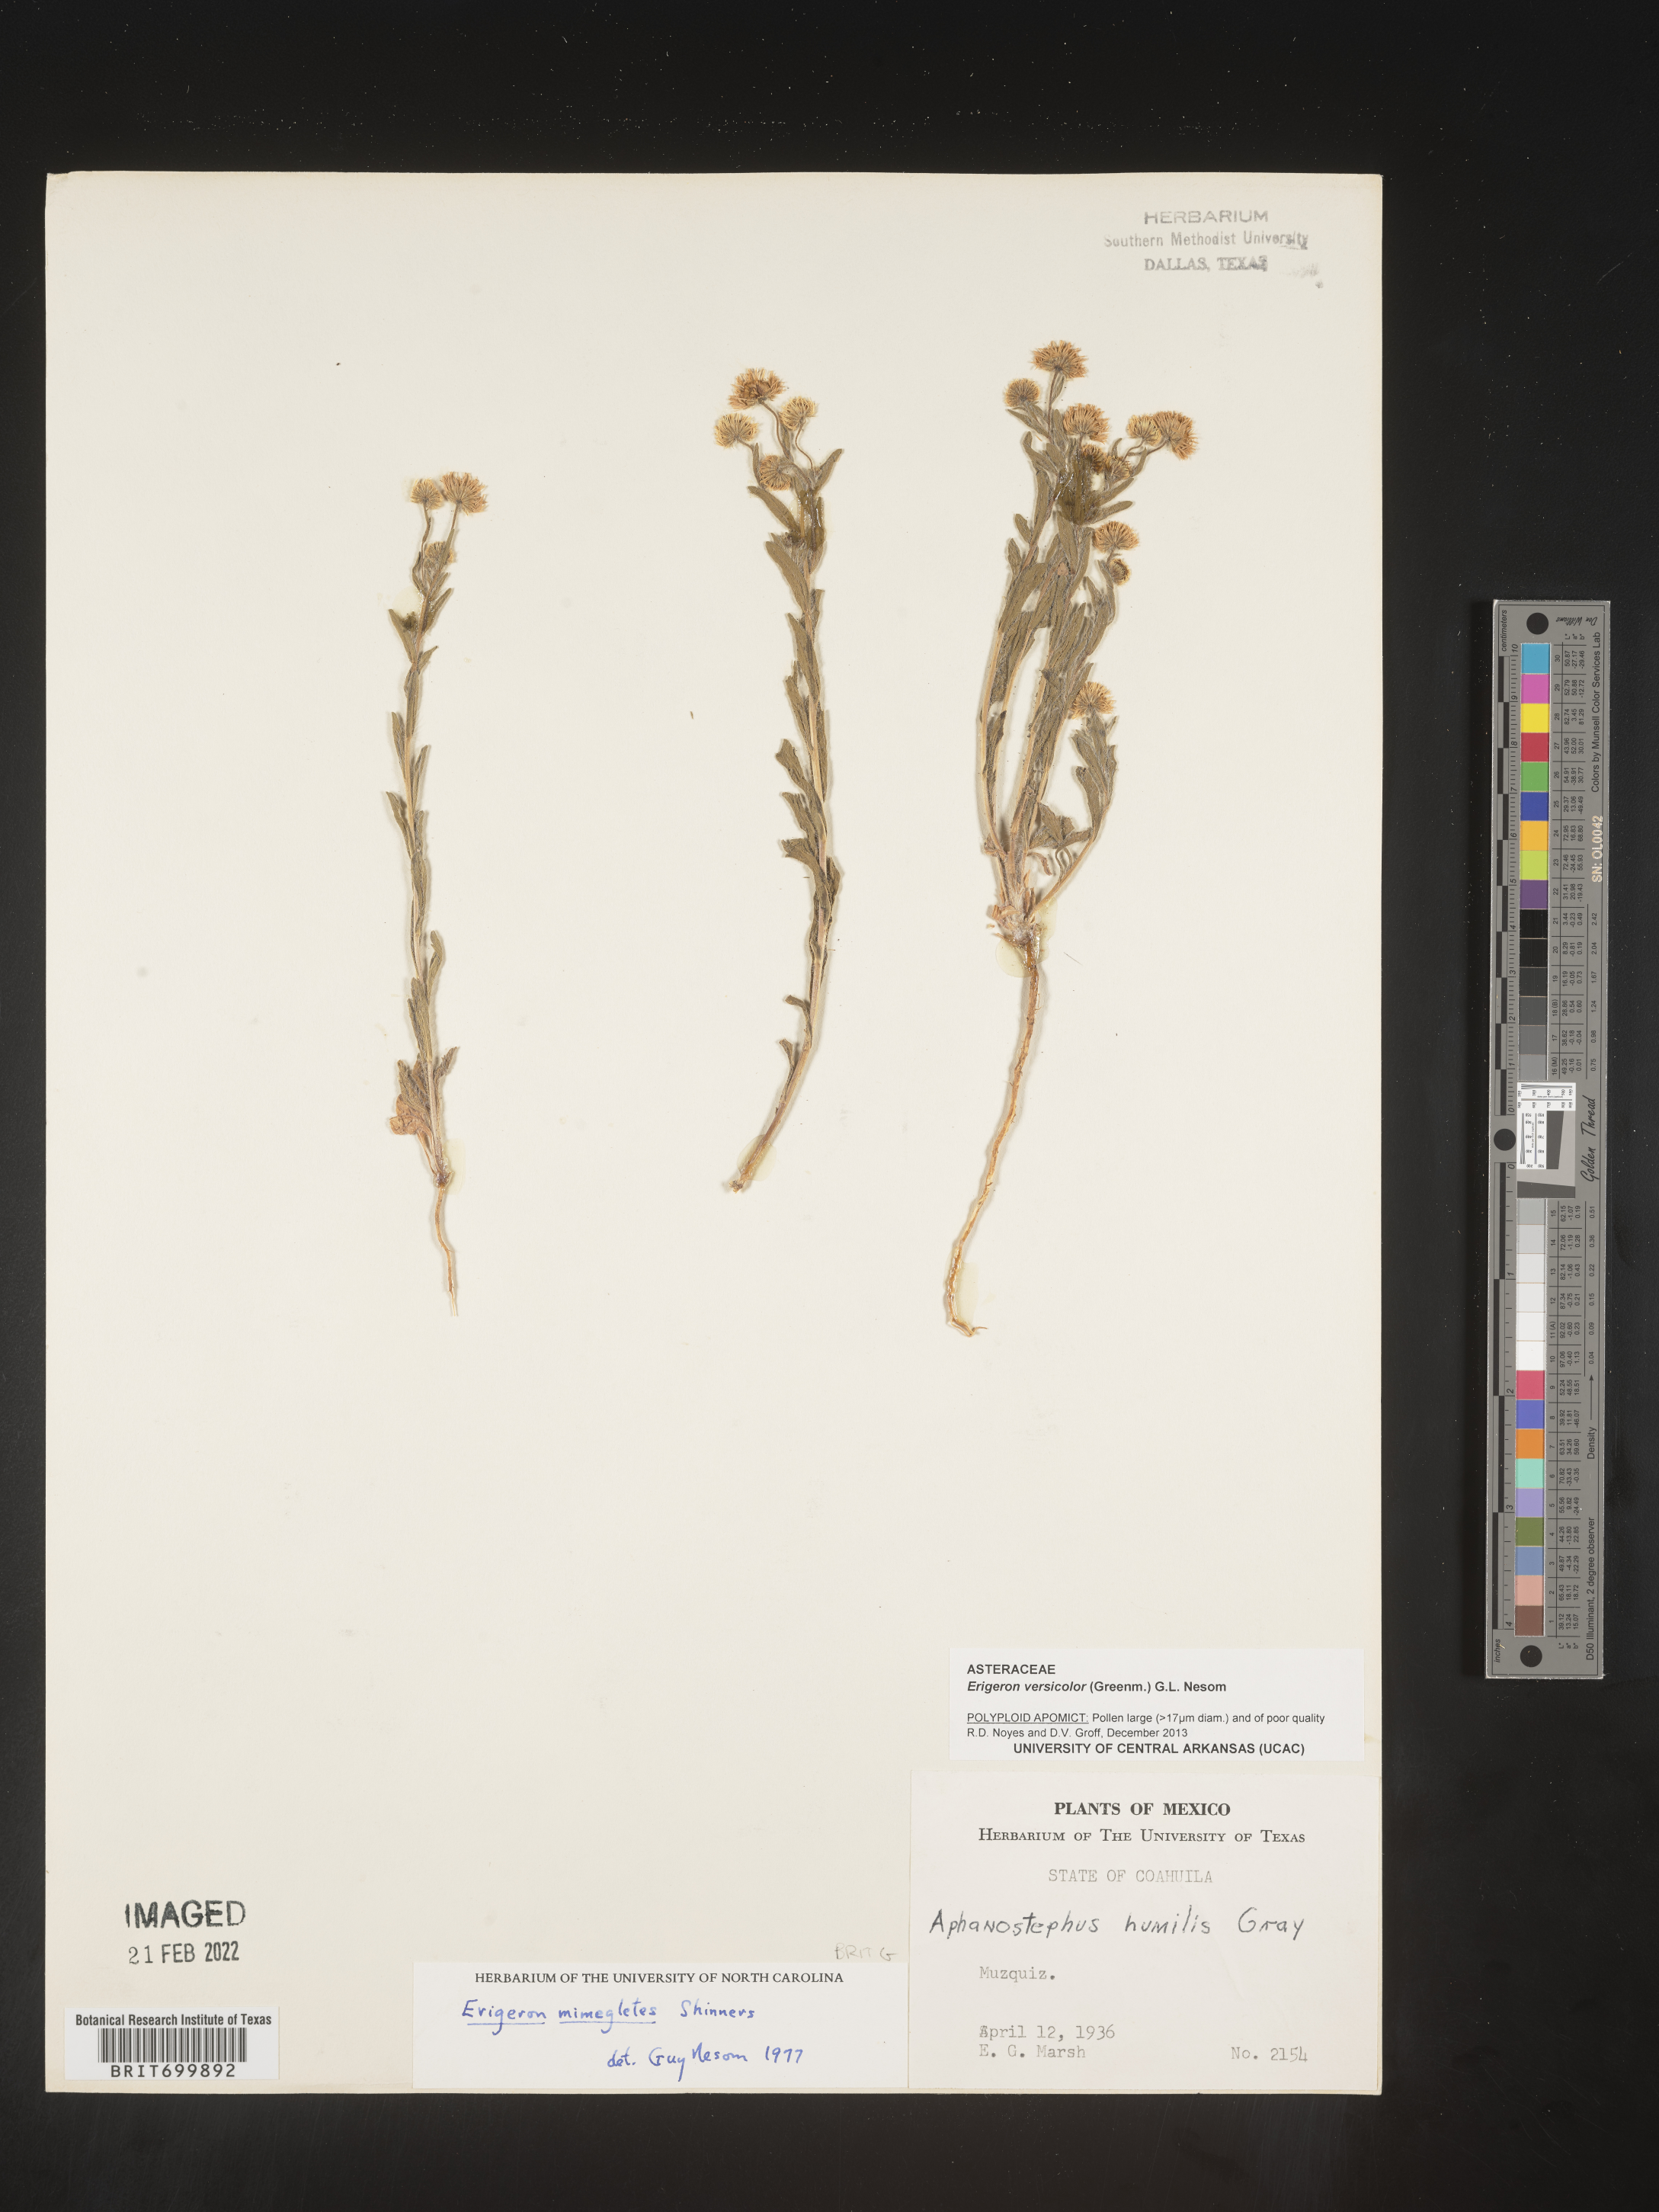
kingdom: Plantae
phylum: Tracheophyta
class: Magnoliopsida
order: Asterales
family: Asteraceae
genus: Erigeron
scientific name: Erigeron versicolor
